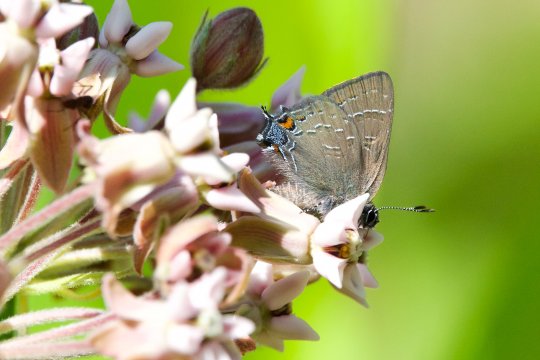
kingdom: Animalia
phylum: Arthropoda
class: Insecta
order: Lepidoptera
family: Lycaenidae
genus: Satyrium
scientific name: Satyrium calanus
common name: Banded Hairstreak
